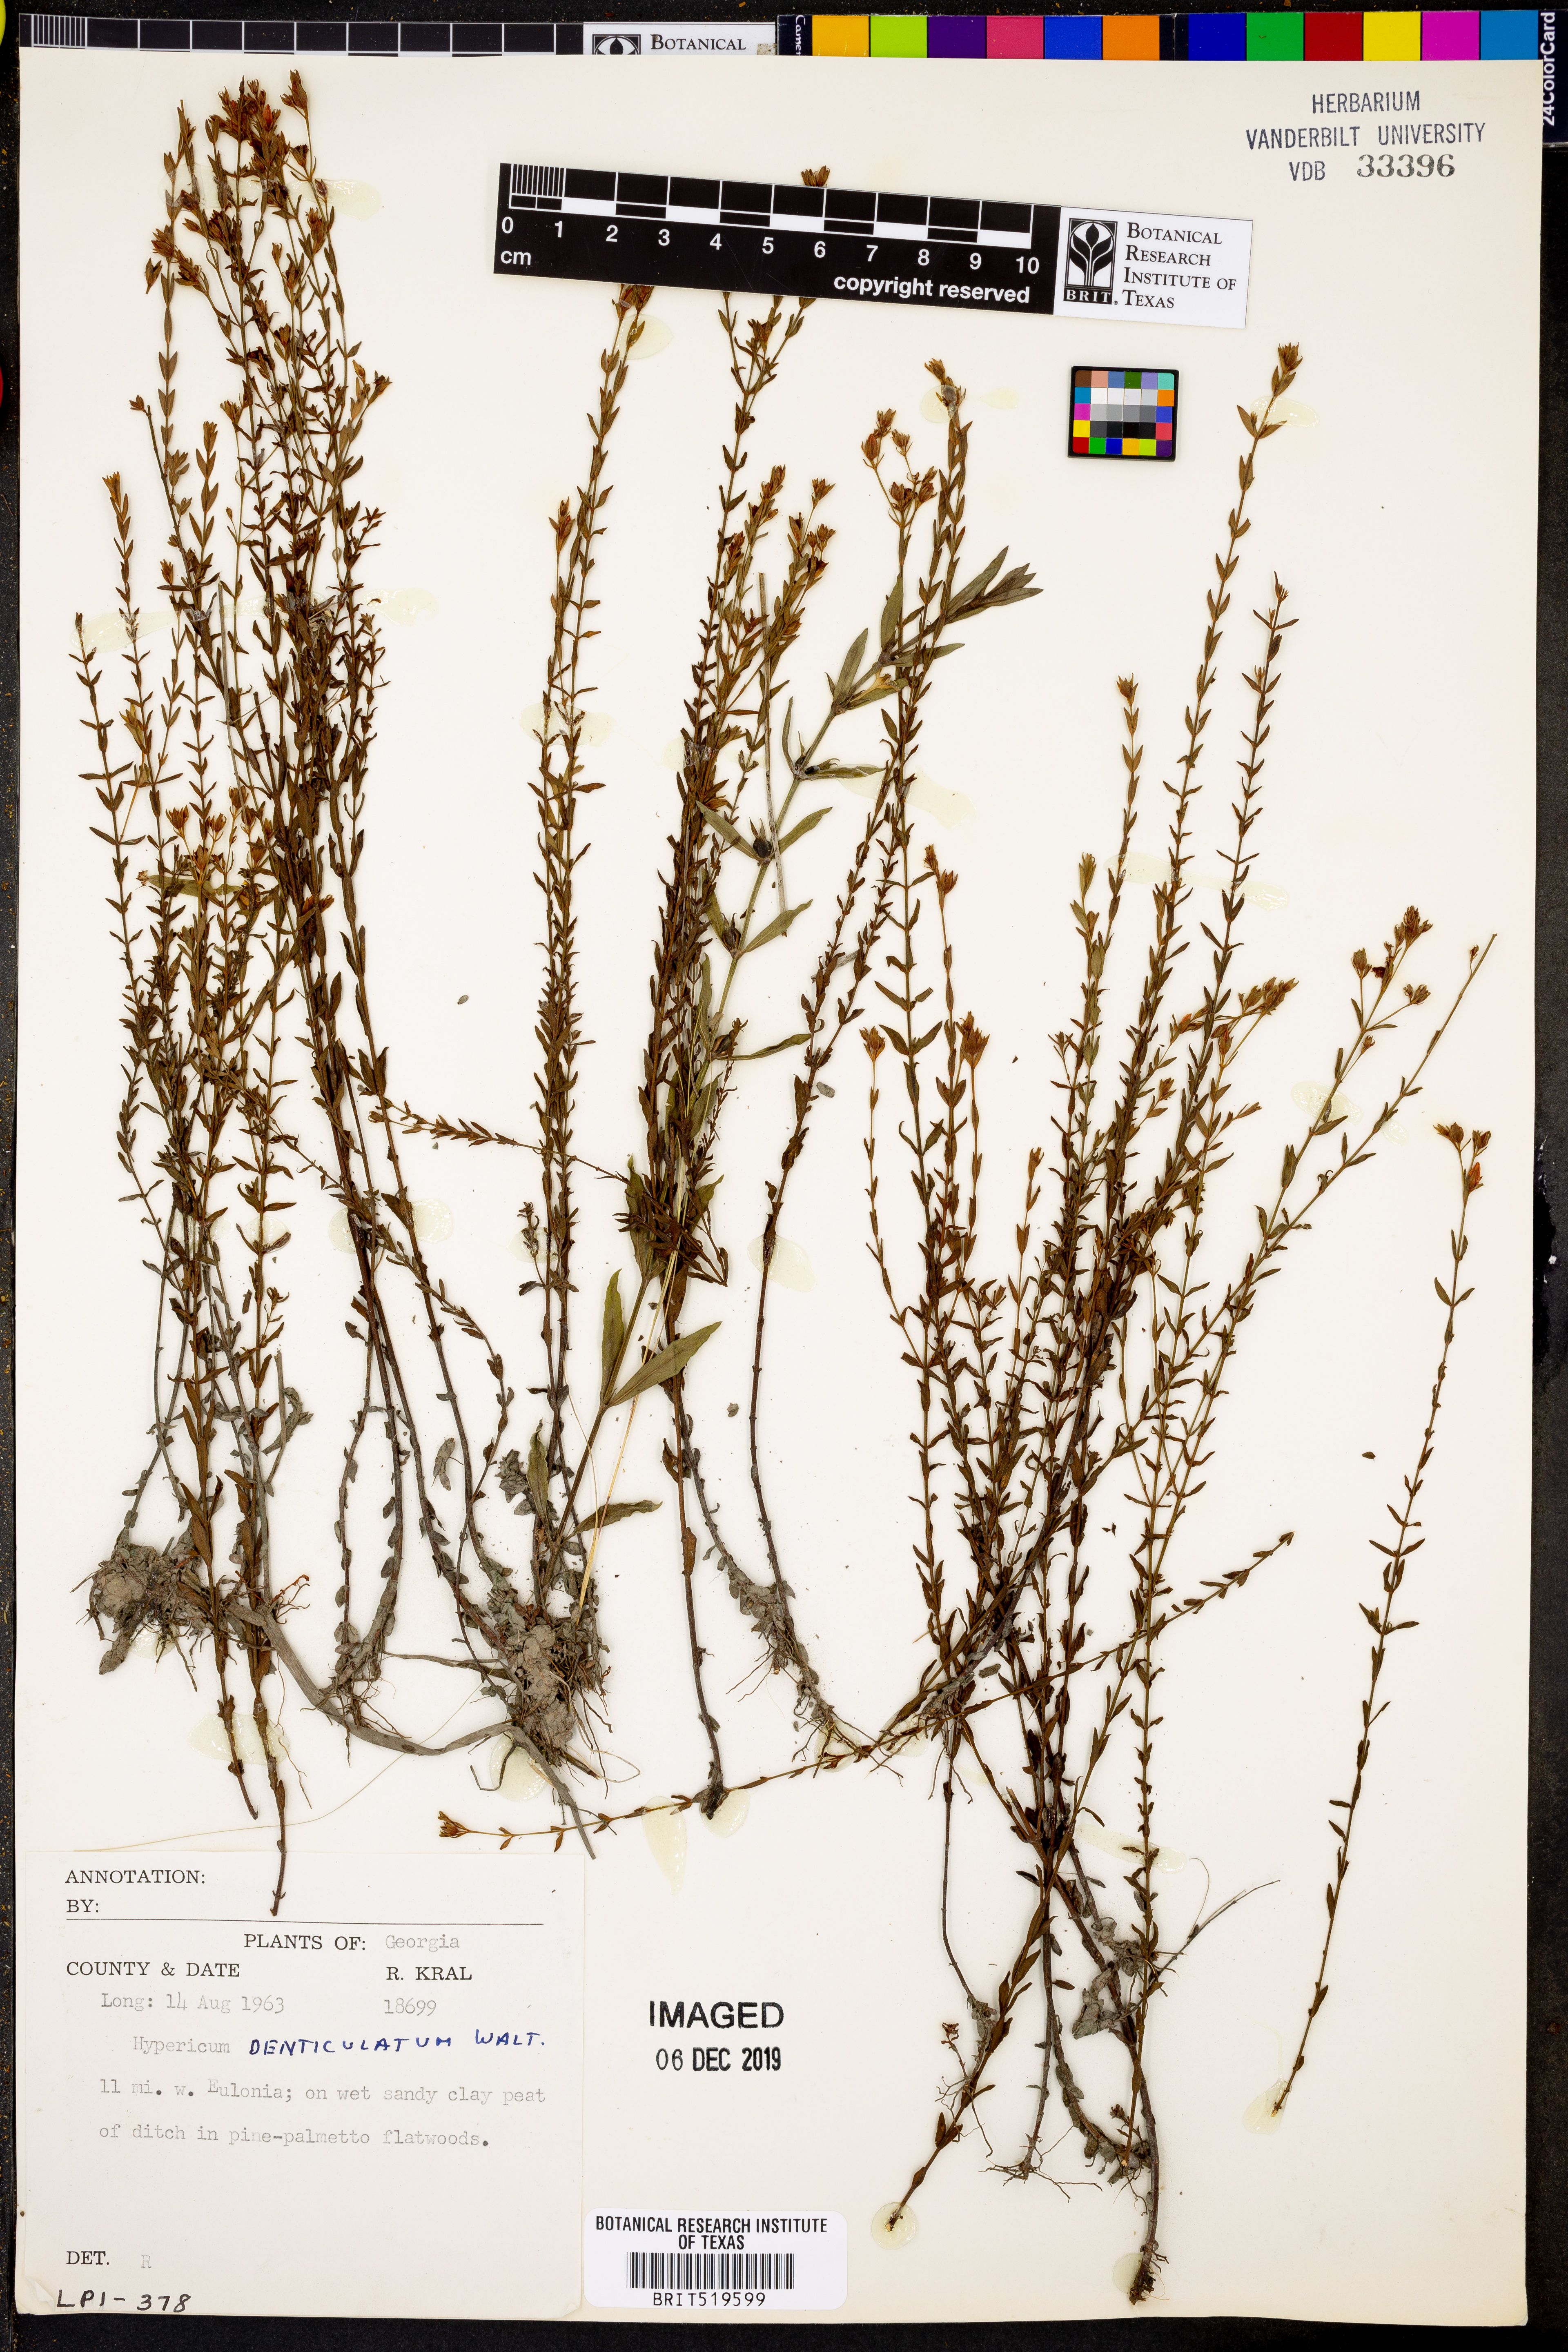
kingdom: Plantae
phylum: Tracheophyta
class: Magnoliopsida
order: Malpighiales
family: Hypericaceae
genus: Hypericum
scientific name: Hypericum denticulatum
